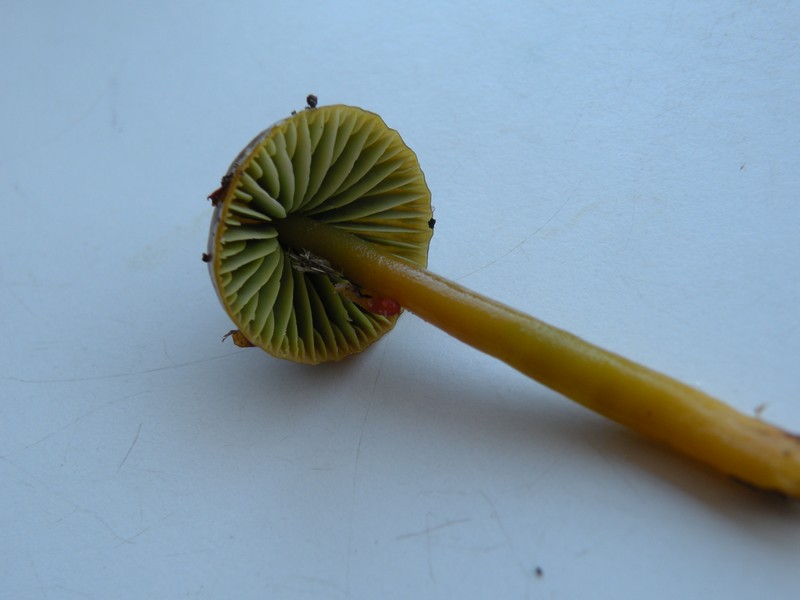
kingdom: Fungi
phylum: Basidiomycota
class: Agaricomycetes
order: Agaricales
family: Hygrophoraceae
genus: Gliophorus
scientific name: Gliophorus psittacinus
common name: papegøje-vokshat
